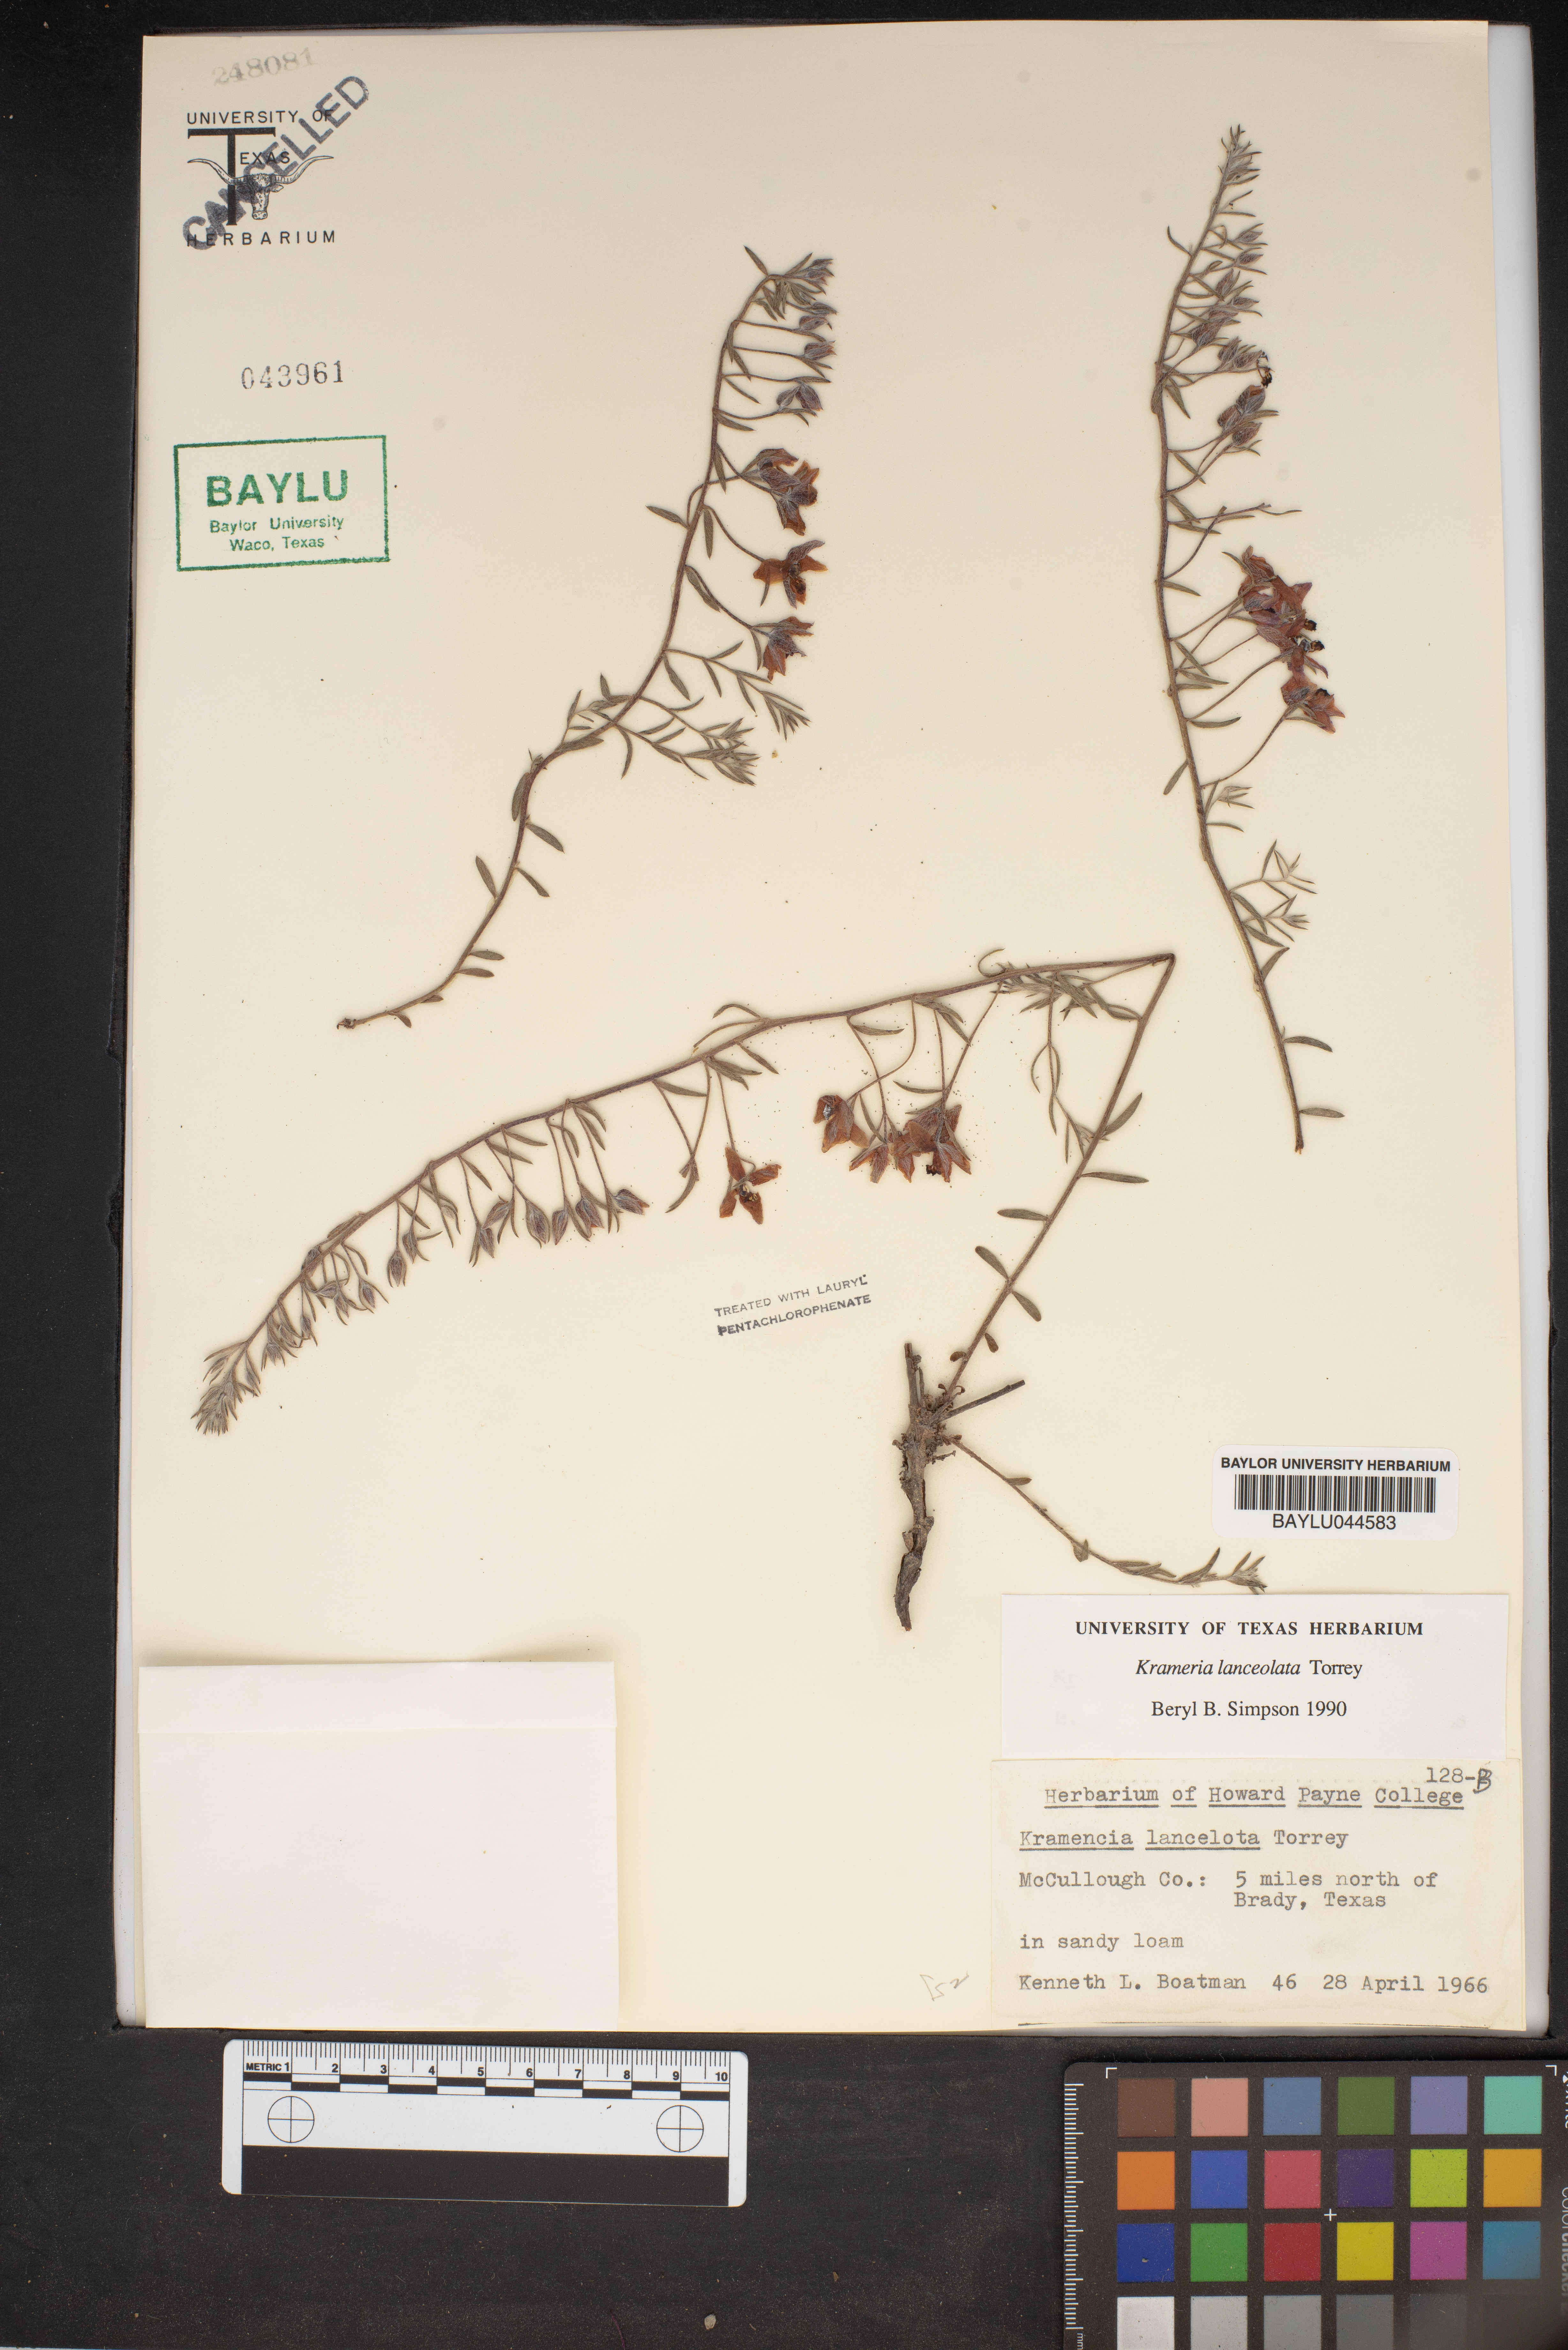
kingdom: Plantae
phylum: Tracheophyta
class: Magnoliopsida
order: Zygophyllales
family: Krameriaceae
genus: Krameria
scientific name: Krameria lanceolata
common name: Ratany
